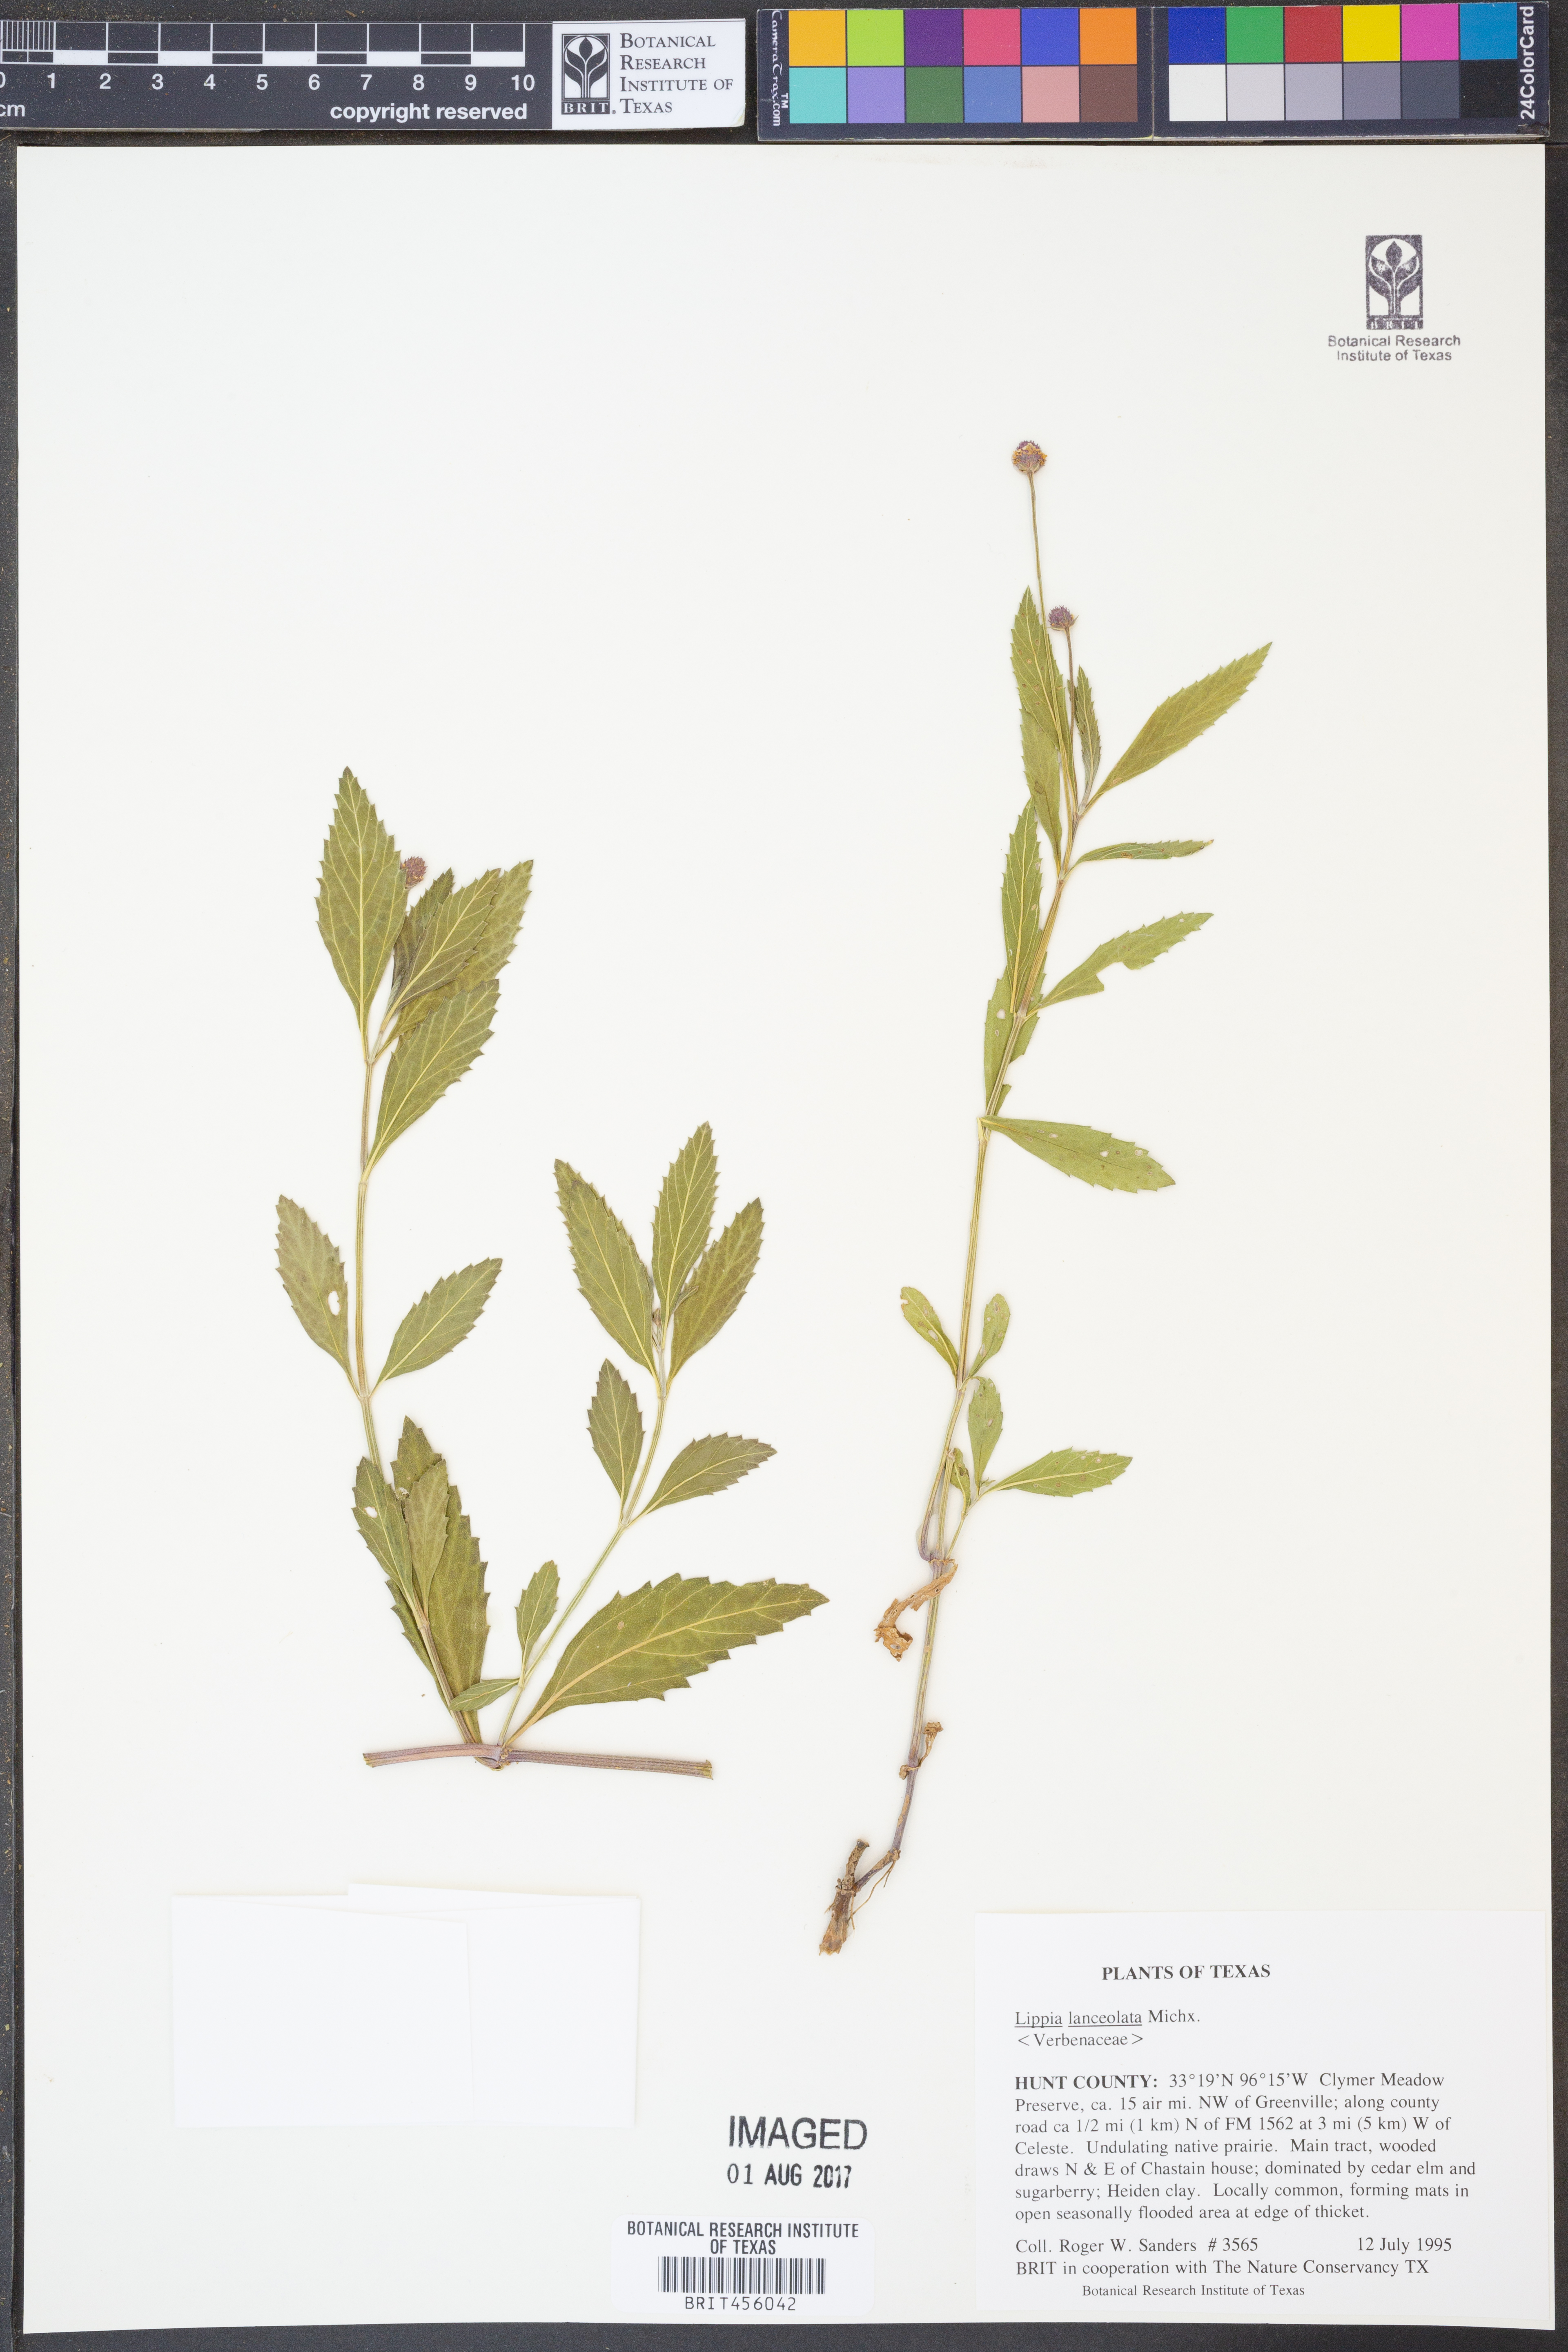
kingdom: Plantae
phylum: Tracheophyta
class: Magnoliopsida
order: Lamiales
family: Verbenaceae
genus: Phyla
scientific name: Phyla lanceolata
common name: Northern fogfruit
